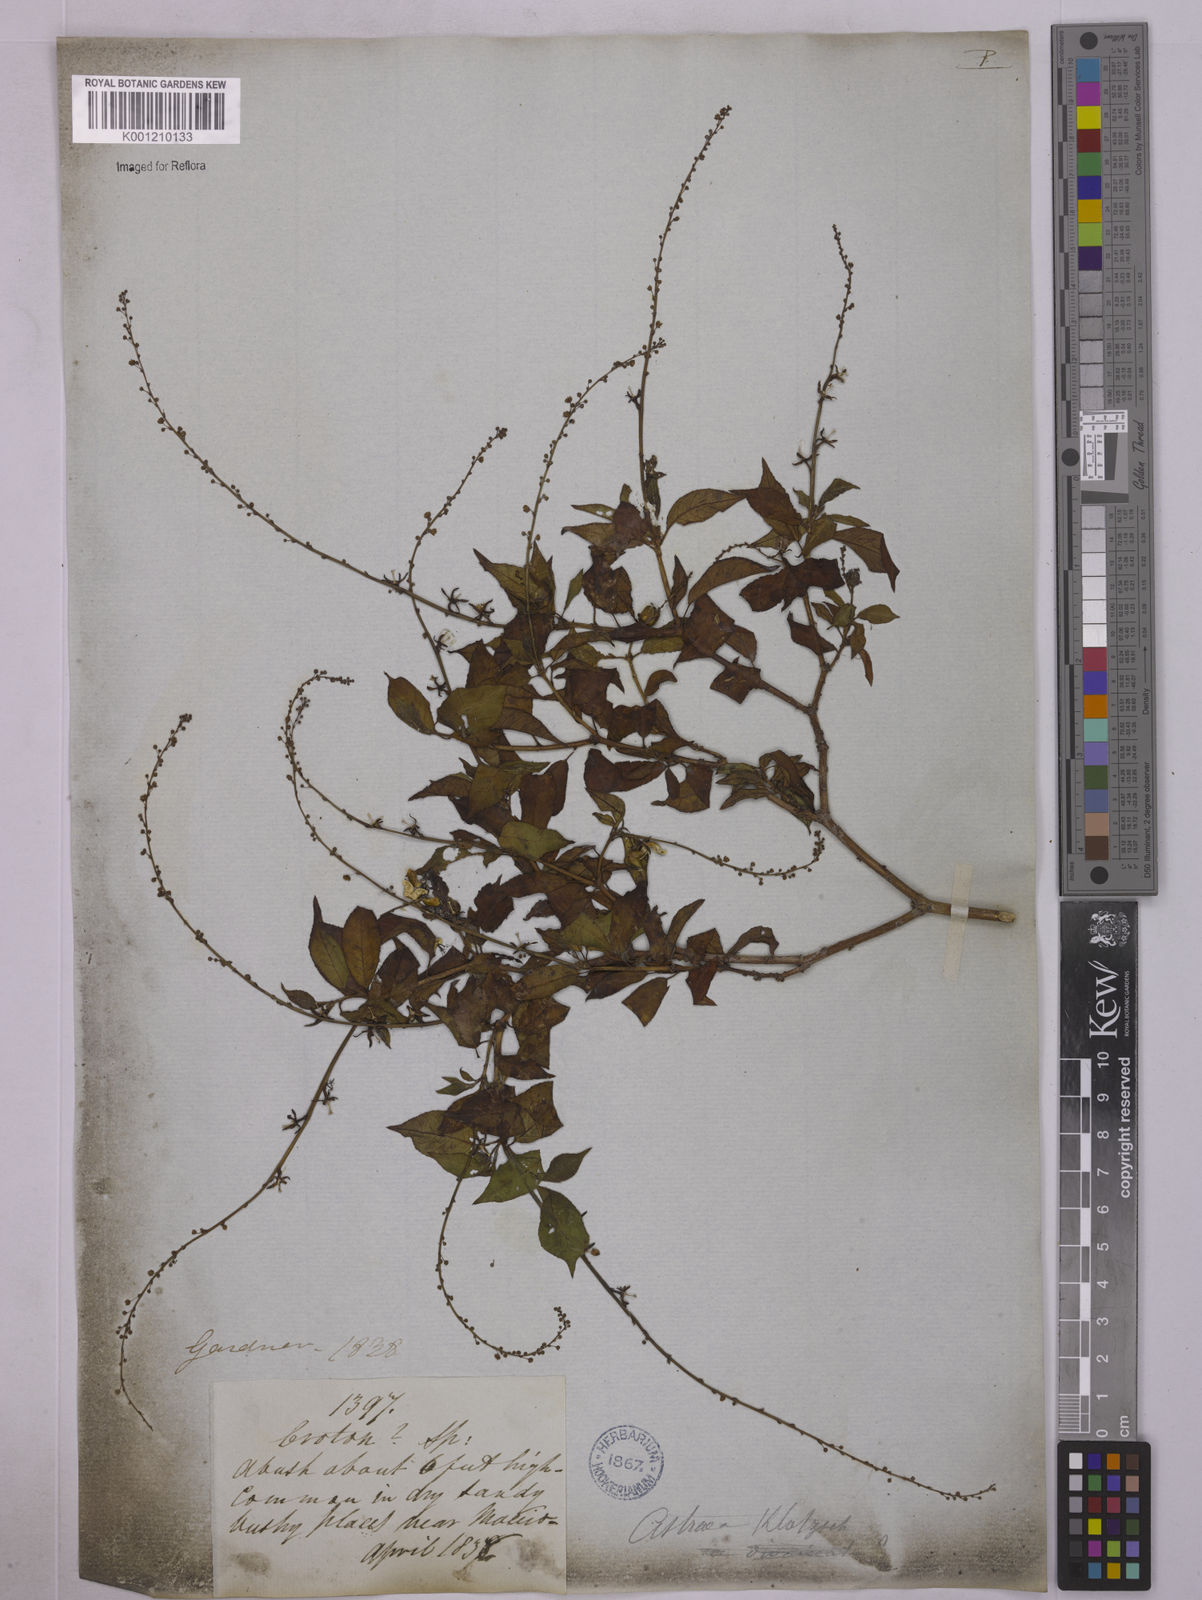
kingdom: Plantae
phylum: Tracheophyta
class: Magnoliopsida
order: Malpighiales
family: Euphorbiaceae
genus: Astraea
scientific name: Astraea macroura
